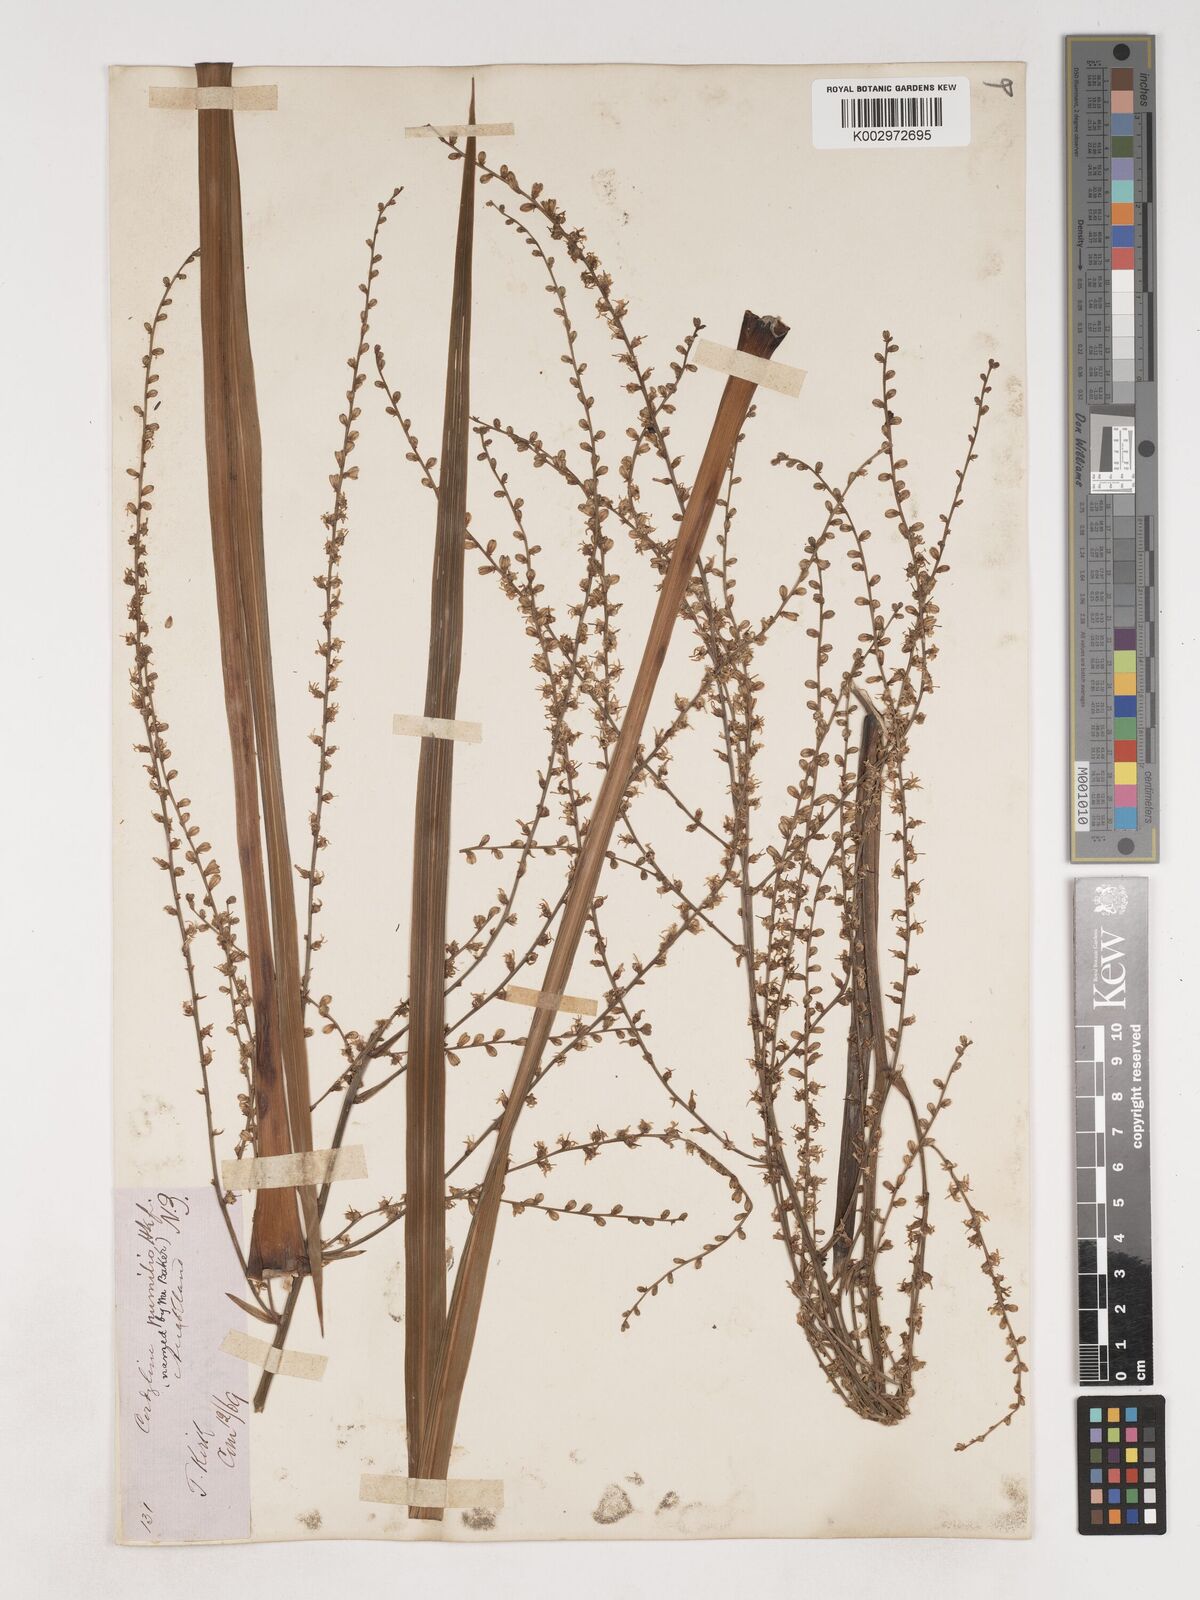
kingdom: Plantae
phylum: Tracheophyta
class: Liliopsida
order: Asparagales
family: Asparagaceae
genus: Cordyline
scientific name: Cordyline pumilio
